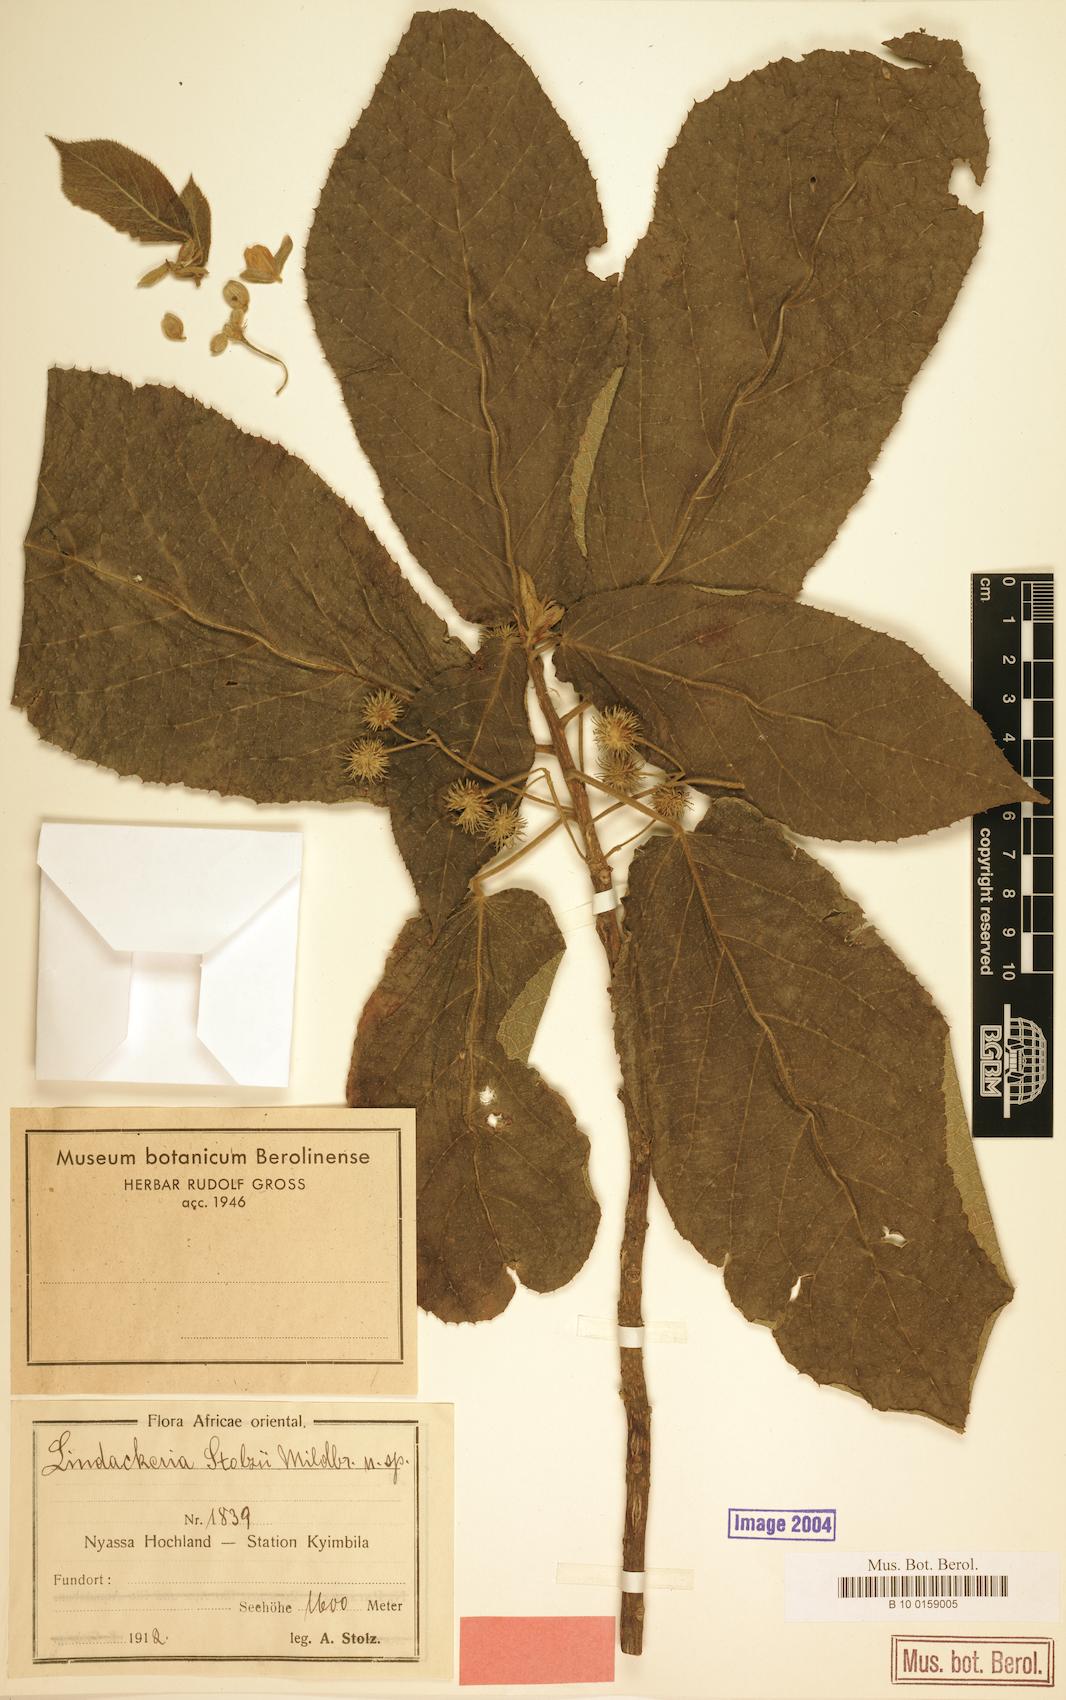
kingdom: Plantae
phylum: Tracheophyta
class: Magnoliopsida
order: Malpighiales
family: Achariaceae
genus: Lindackeria
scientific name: Lindackeria
